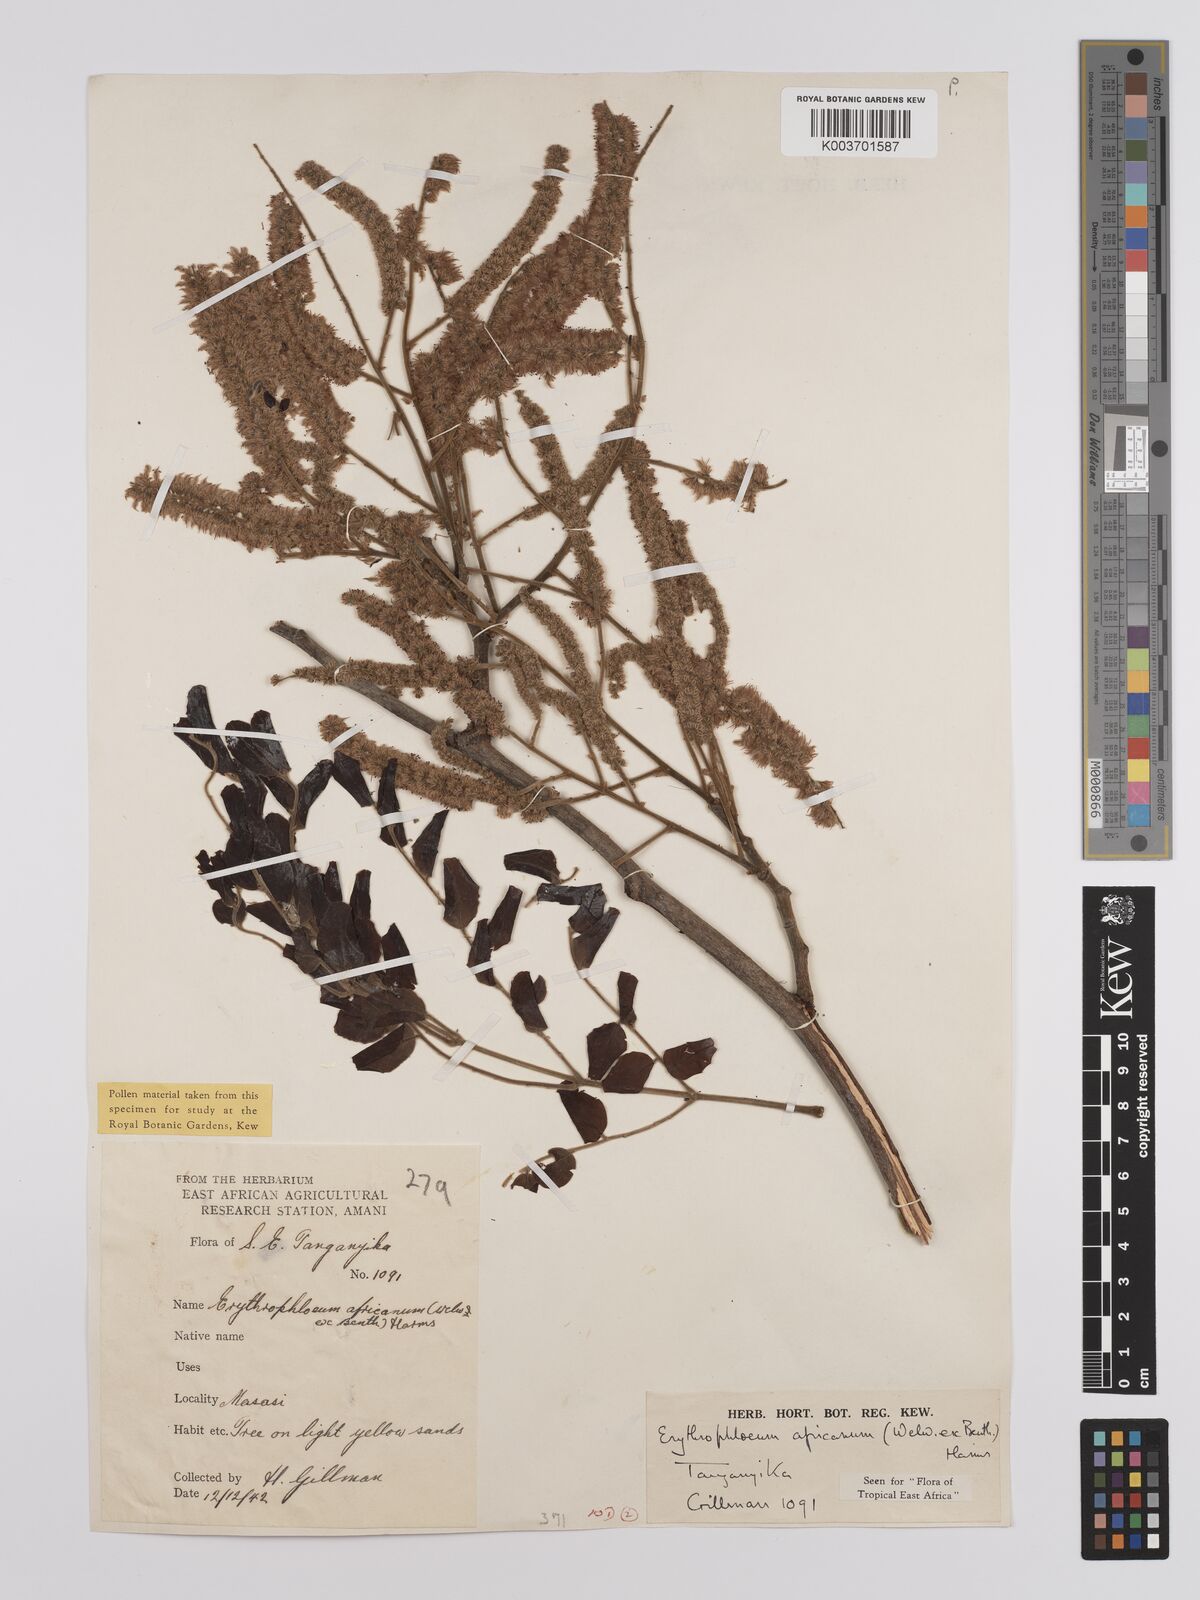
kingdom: Plantae
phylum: Tracheophyta
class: Magnoliopsida
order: Fabales
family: Fabaceae
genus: Erythrophleum
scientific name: Erythrophleum africanum
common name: African blackwood
